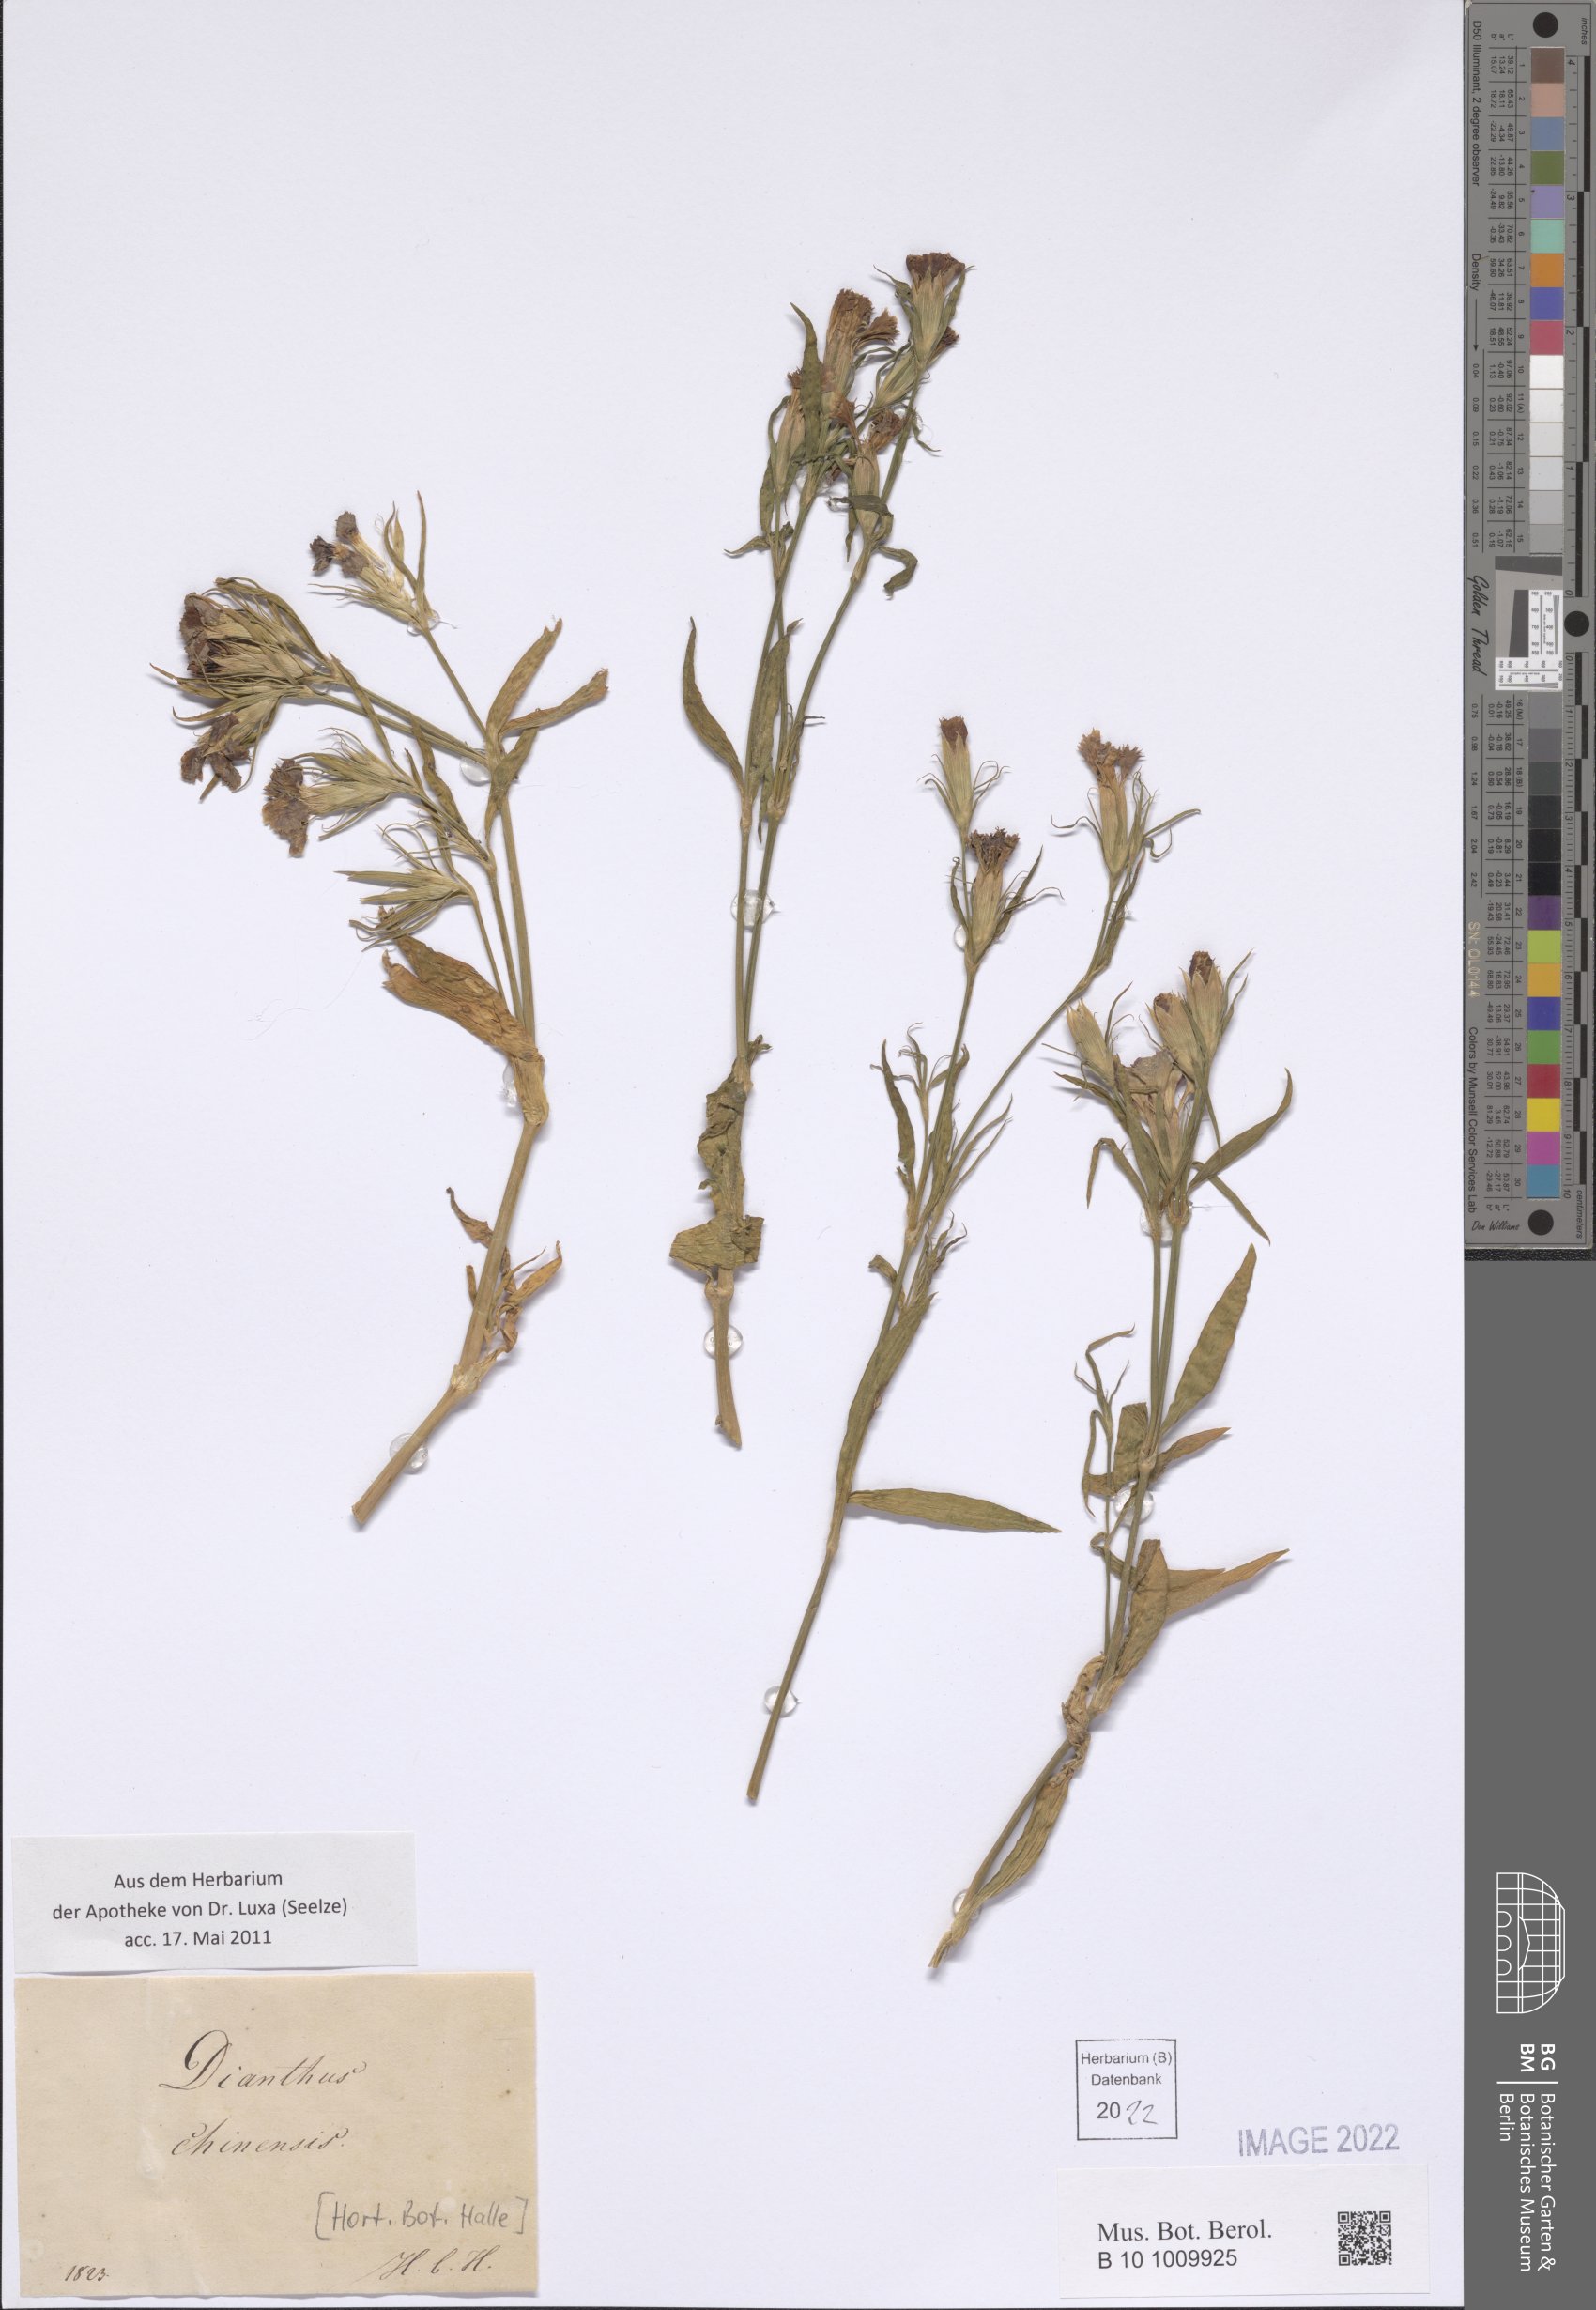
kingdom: Plantae
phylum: Tracheophyta
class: Magnoliopsida
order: Caryophyllales
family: Caryophyllaceae
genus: Dianthus
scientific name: Dianthus chinensis
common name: Rainbow pink
